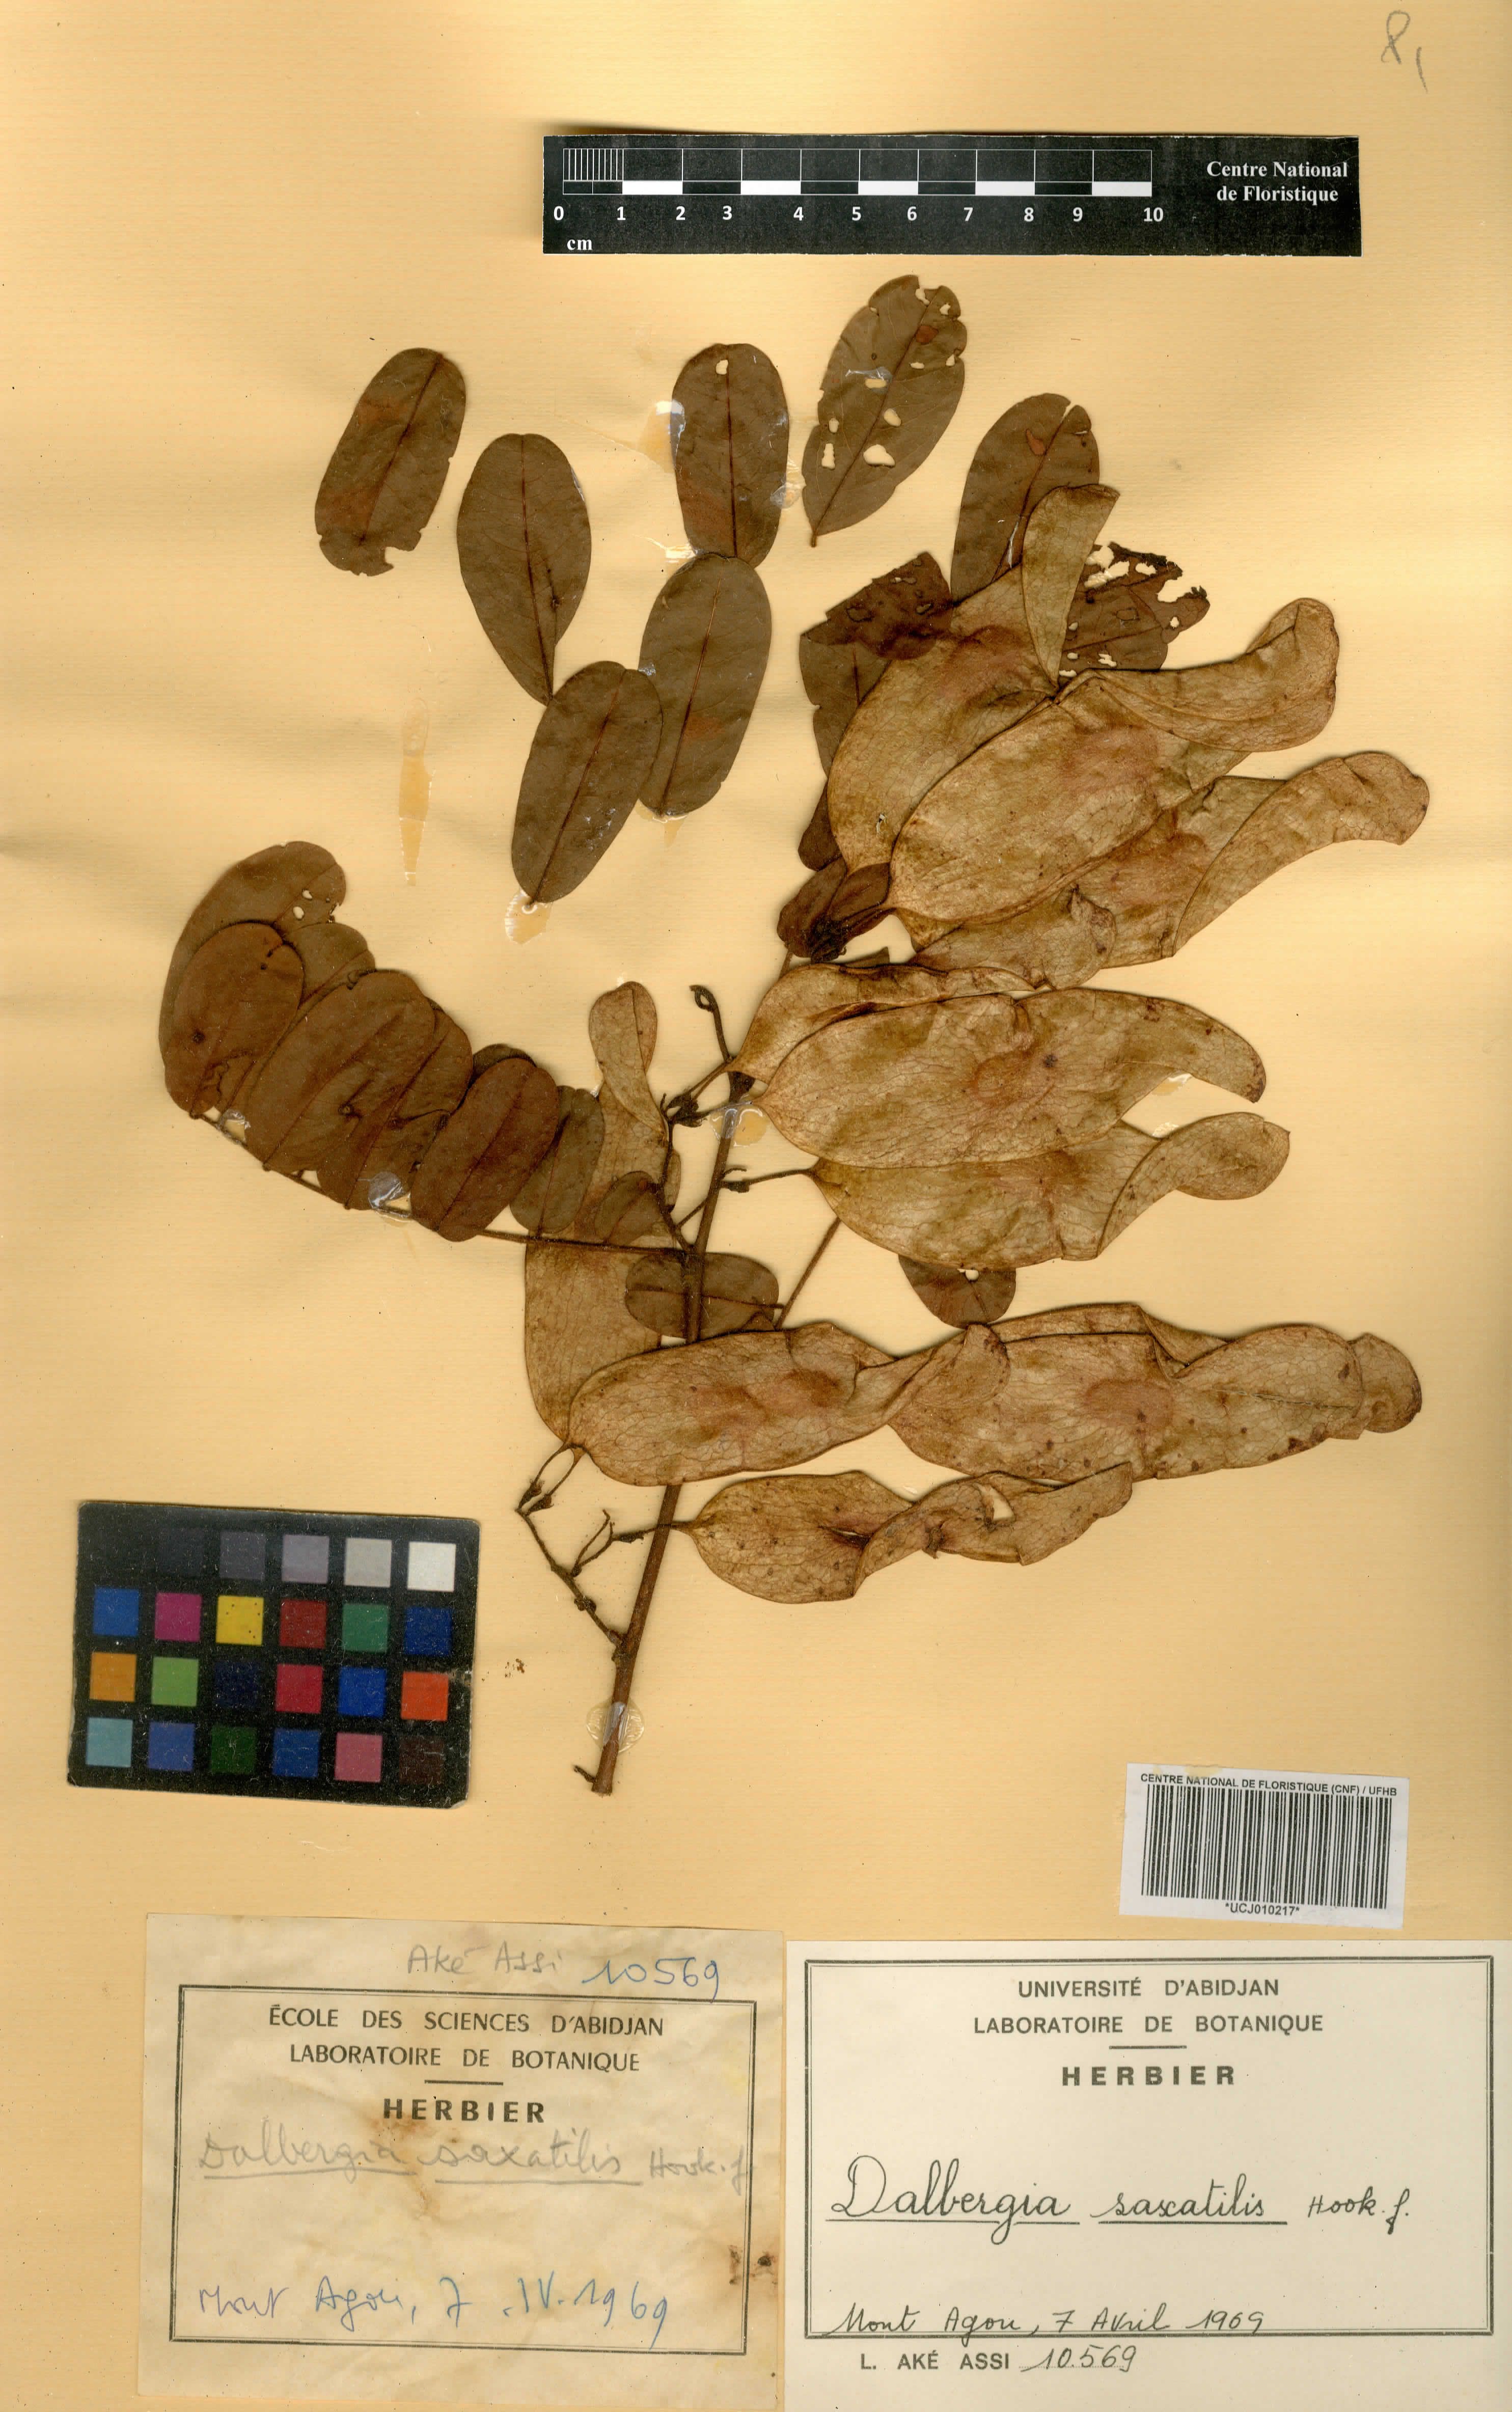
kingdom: Plantae
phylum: Tracheophyta
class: Magnoliopsida
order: Fabales
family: Fabaceae
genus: Dalbergia
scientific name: Dalbergia saxatilis
